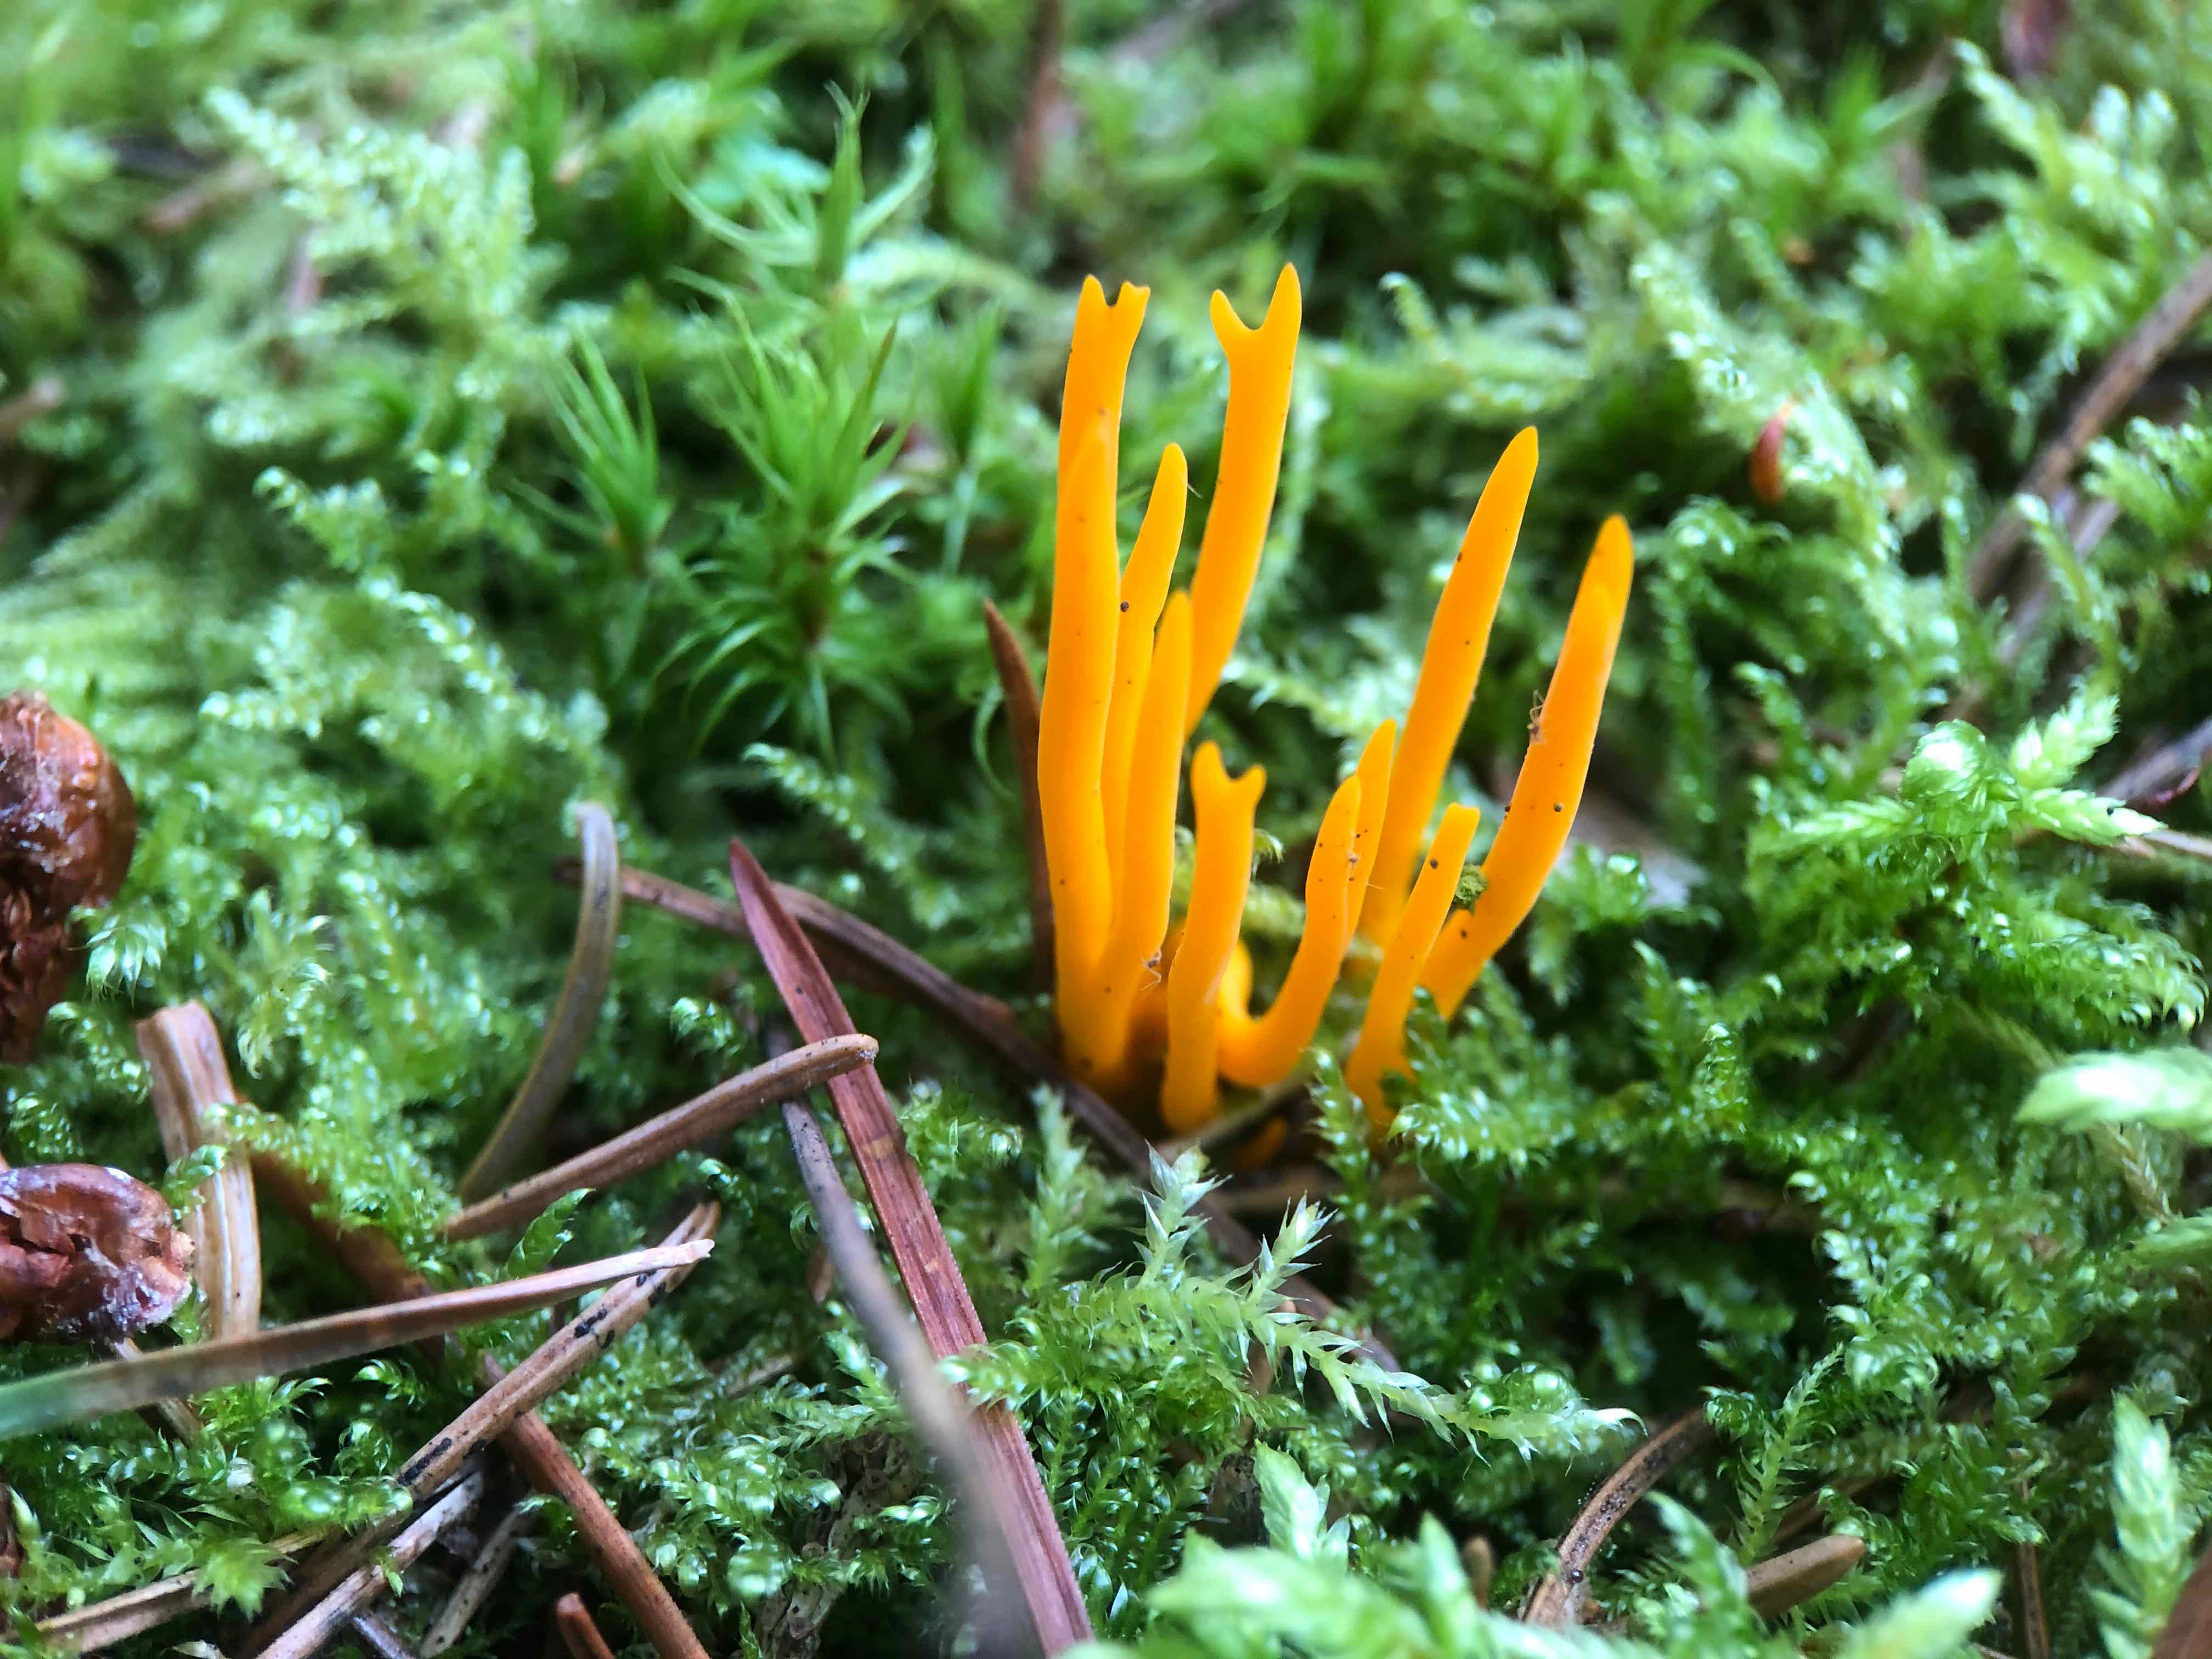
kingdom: Fungi
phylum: Basidiomycota
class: Dacrymycetes
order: Dacrymycetales
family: Dacrymycetaceae
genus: Calocera
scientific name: Calocera viscosa
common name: almindelig guldgaffel
